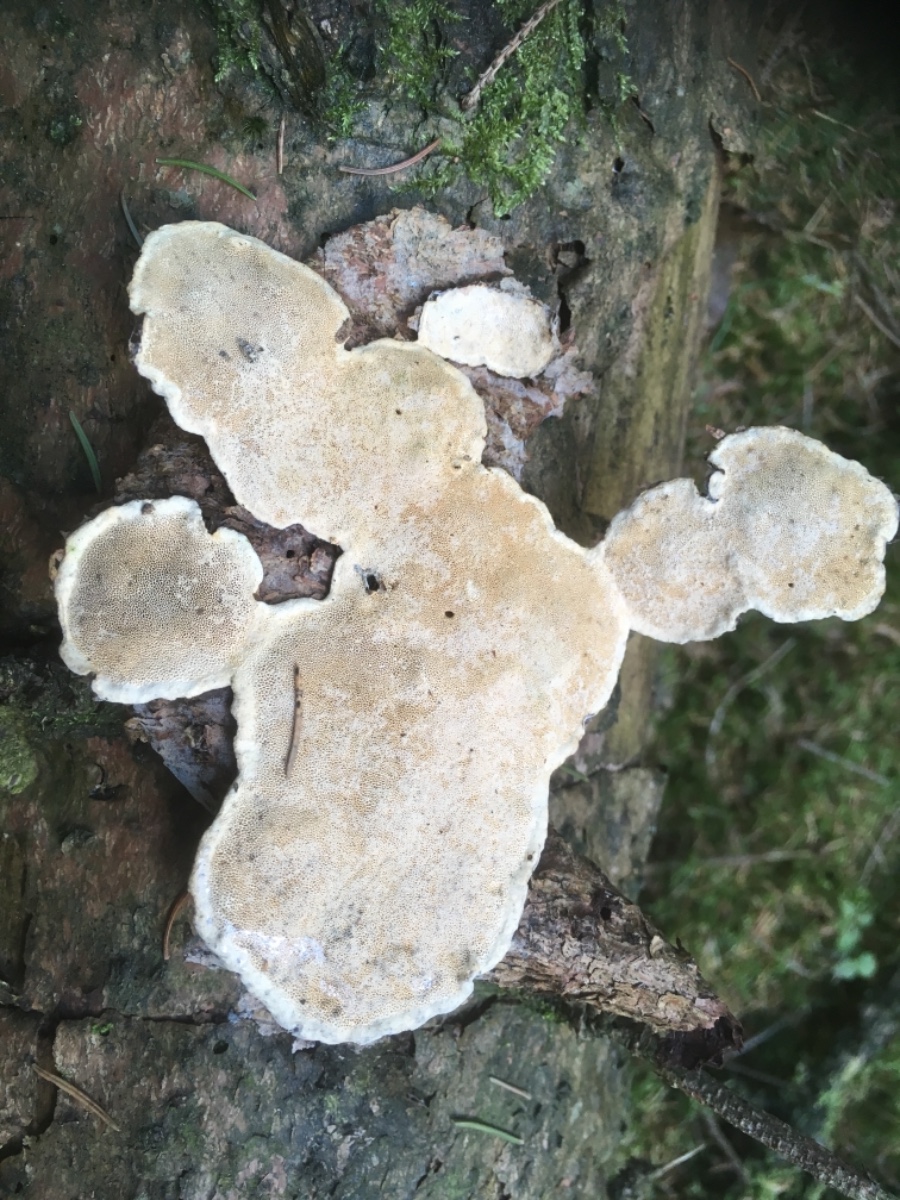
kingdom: Fungi
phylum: Basidiomycota
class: Agaricomycetes
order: Polyporales
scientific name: Polyporales
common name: poresvampordenen
